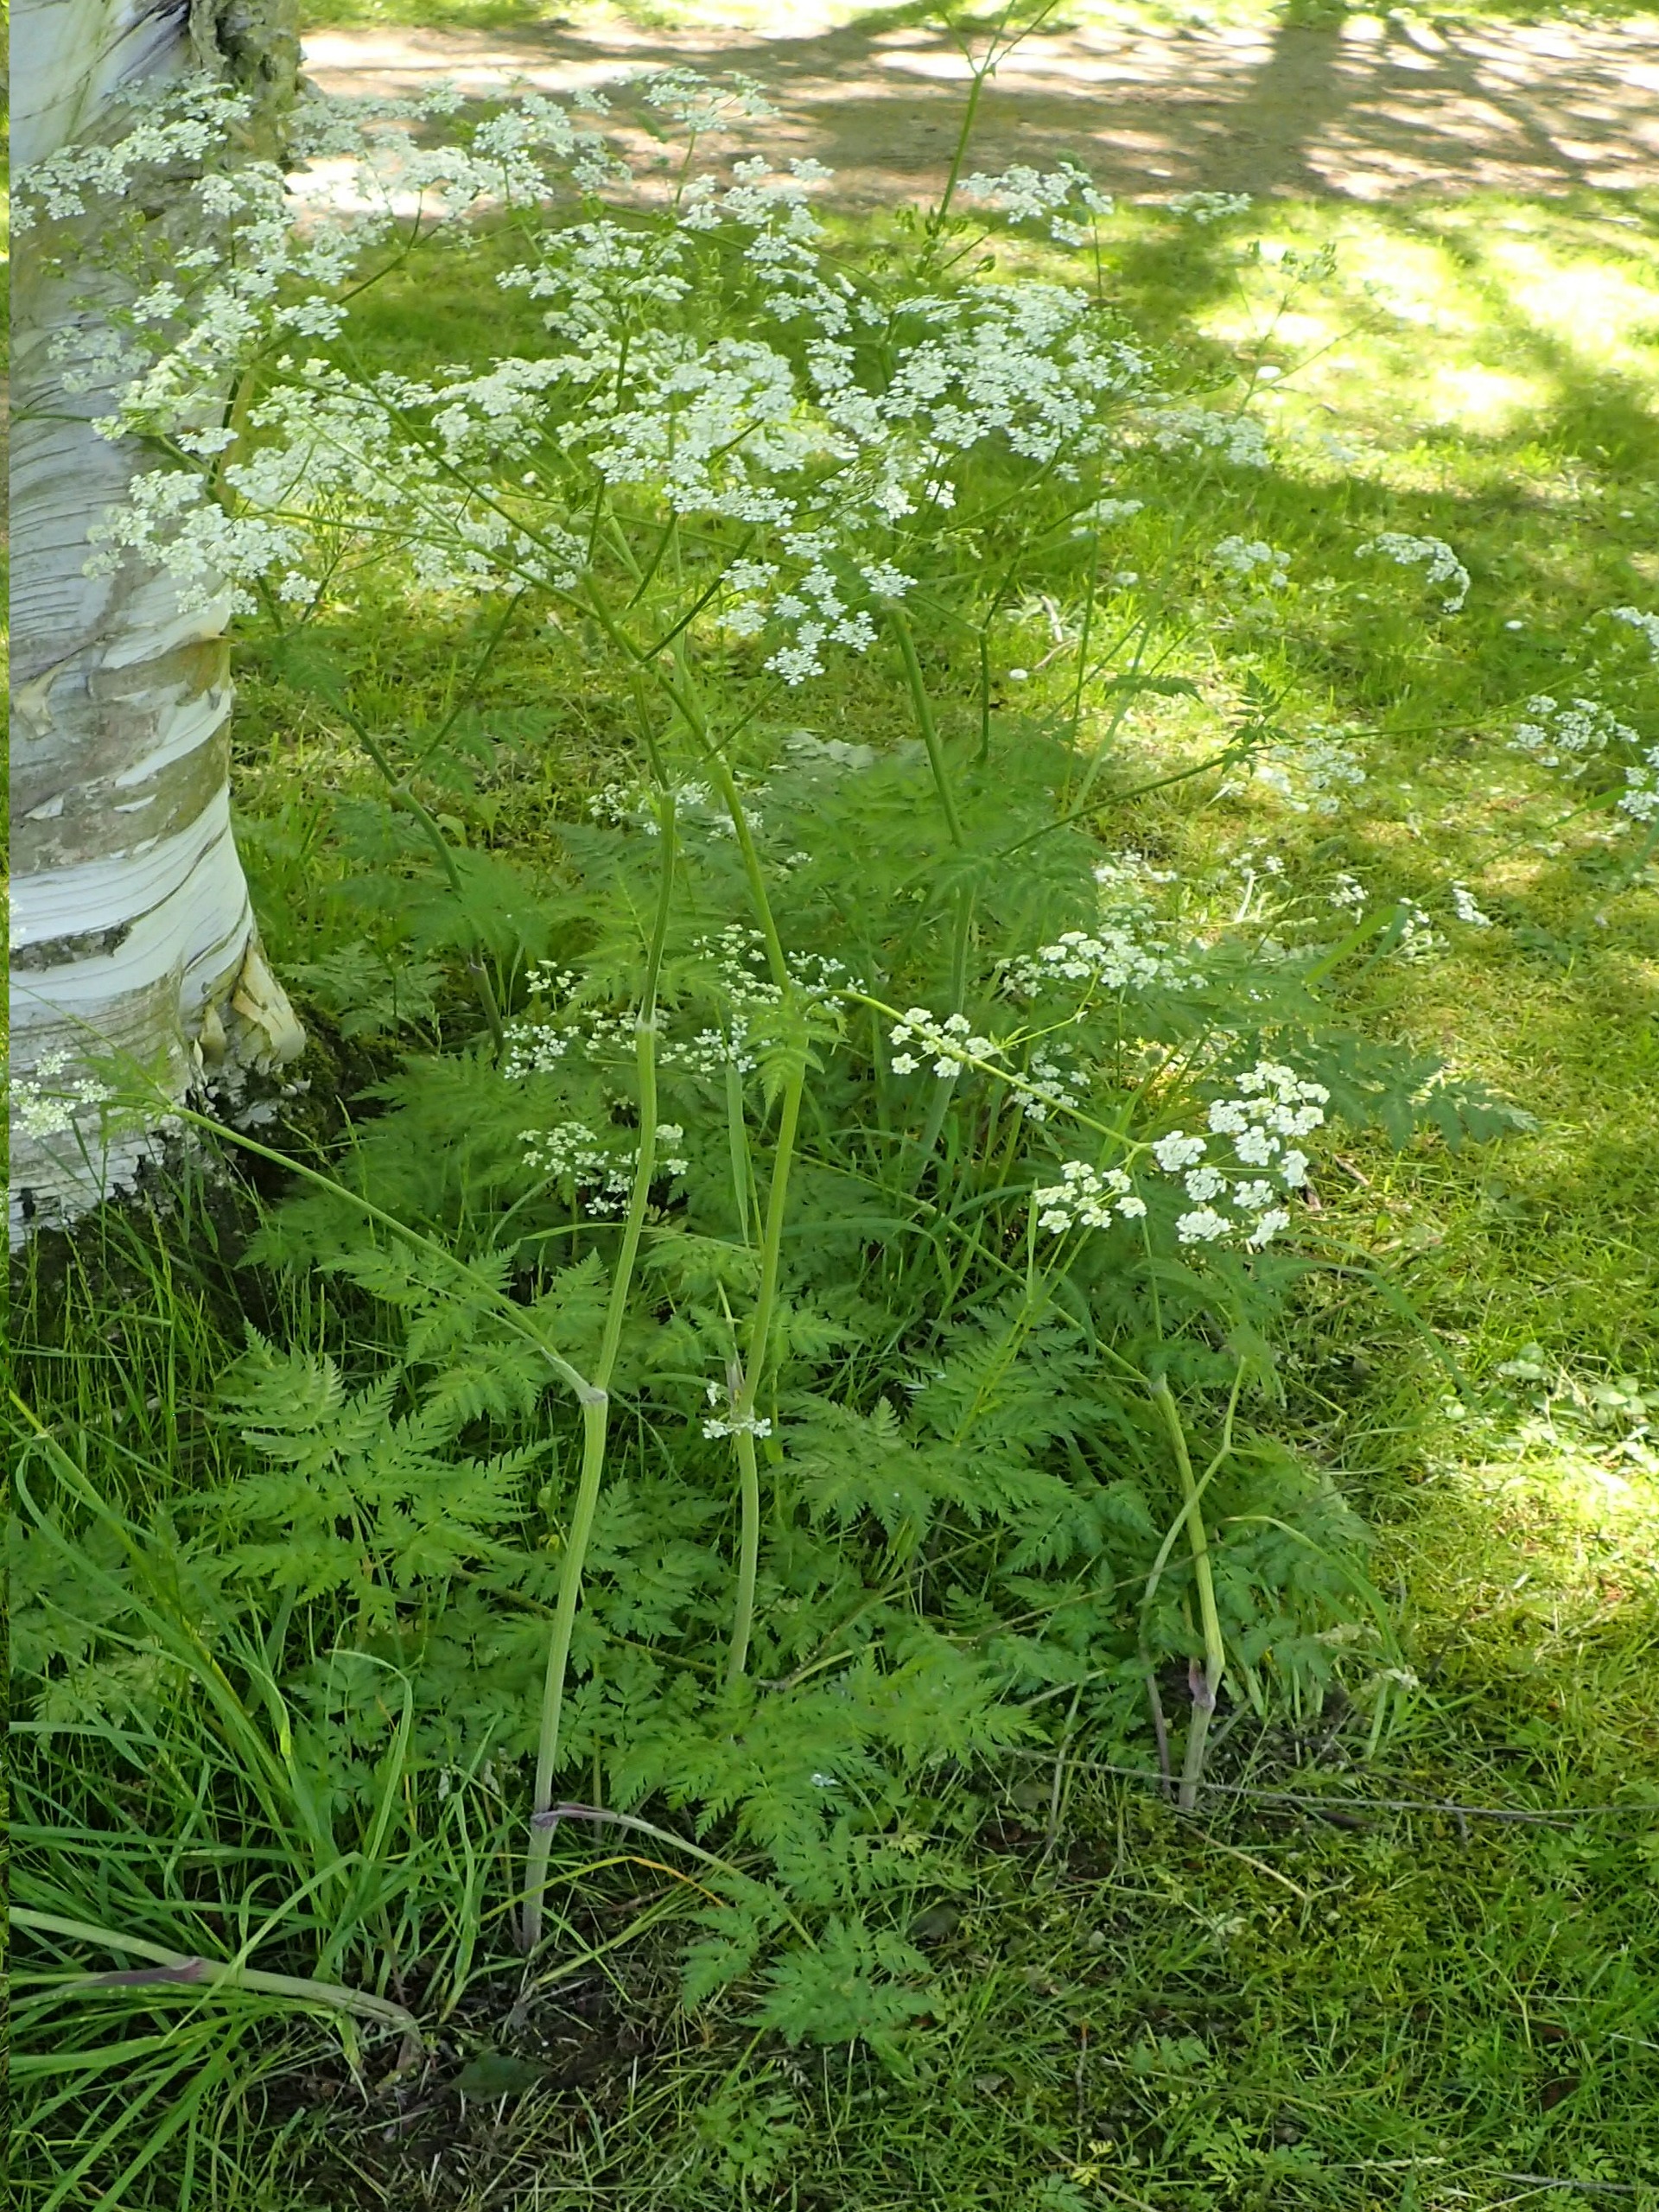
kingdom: Plantae
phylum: Tracheophyta
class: Magnoliopsida
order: Apiales
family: Apiaceae
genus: Anthriscus
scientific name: Anthriscus sylvestris
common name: Vild kørvel
